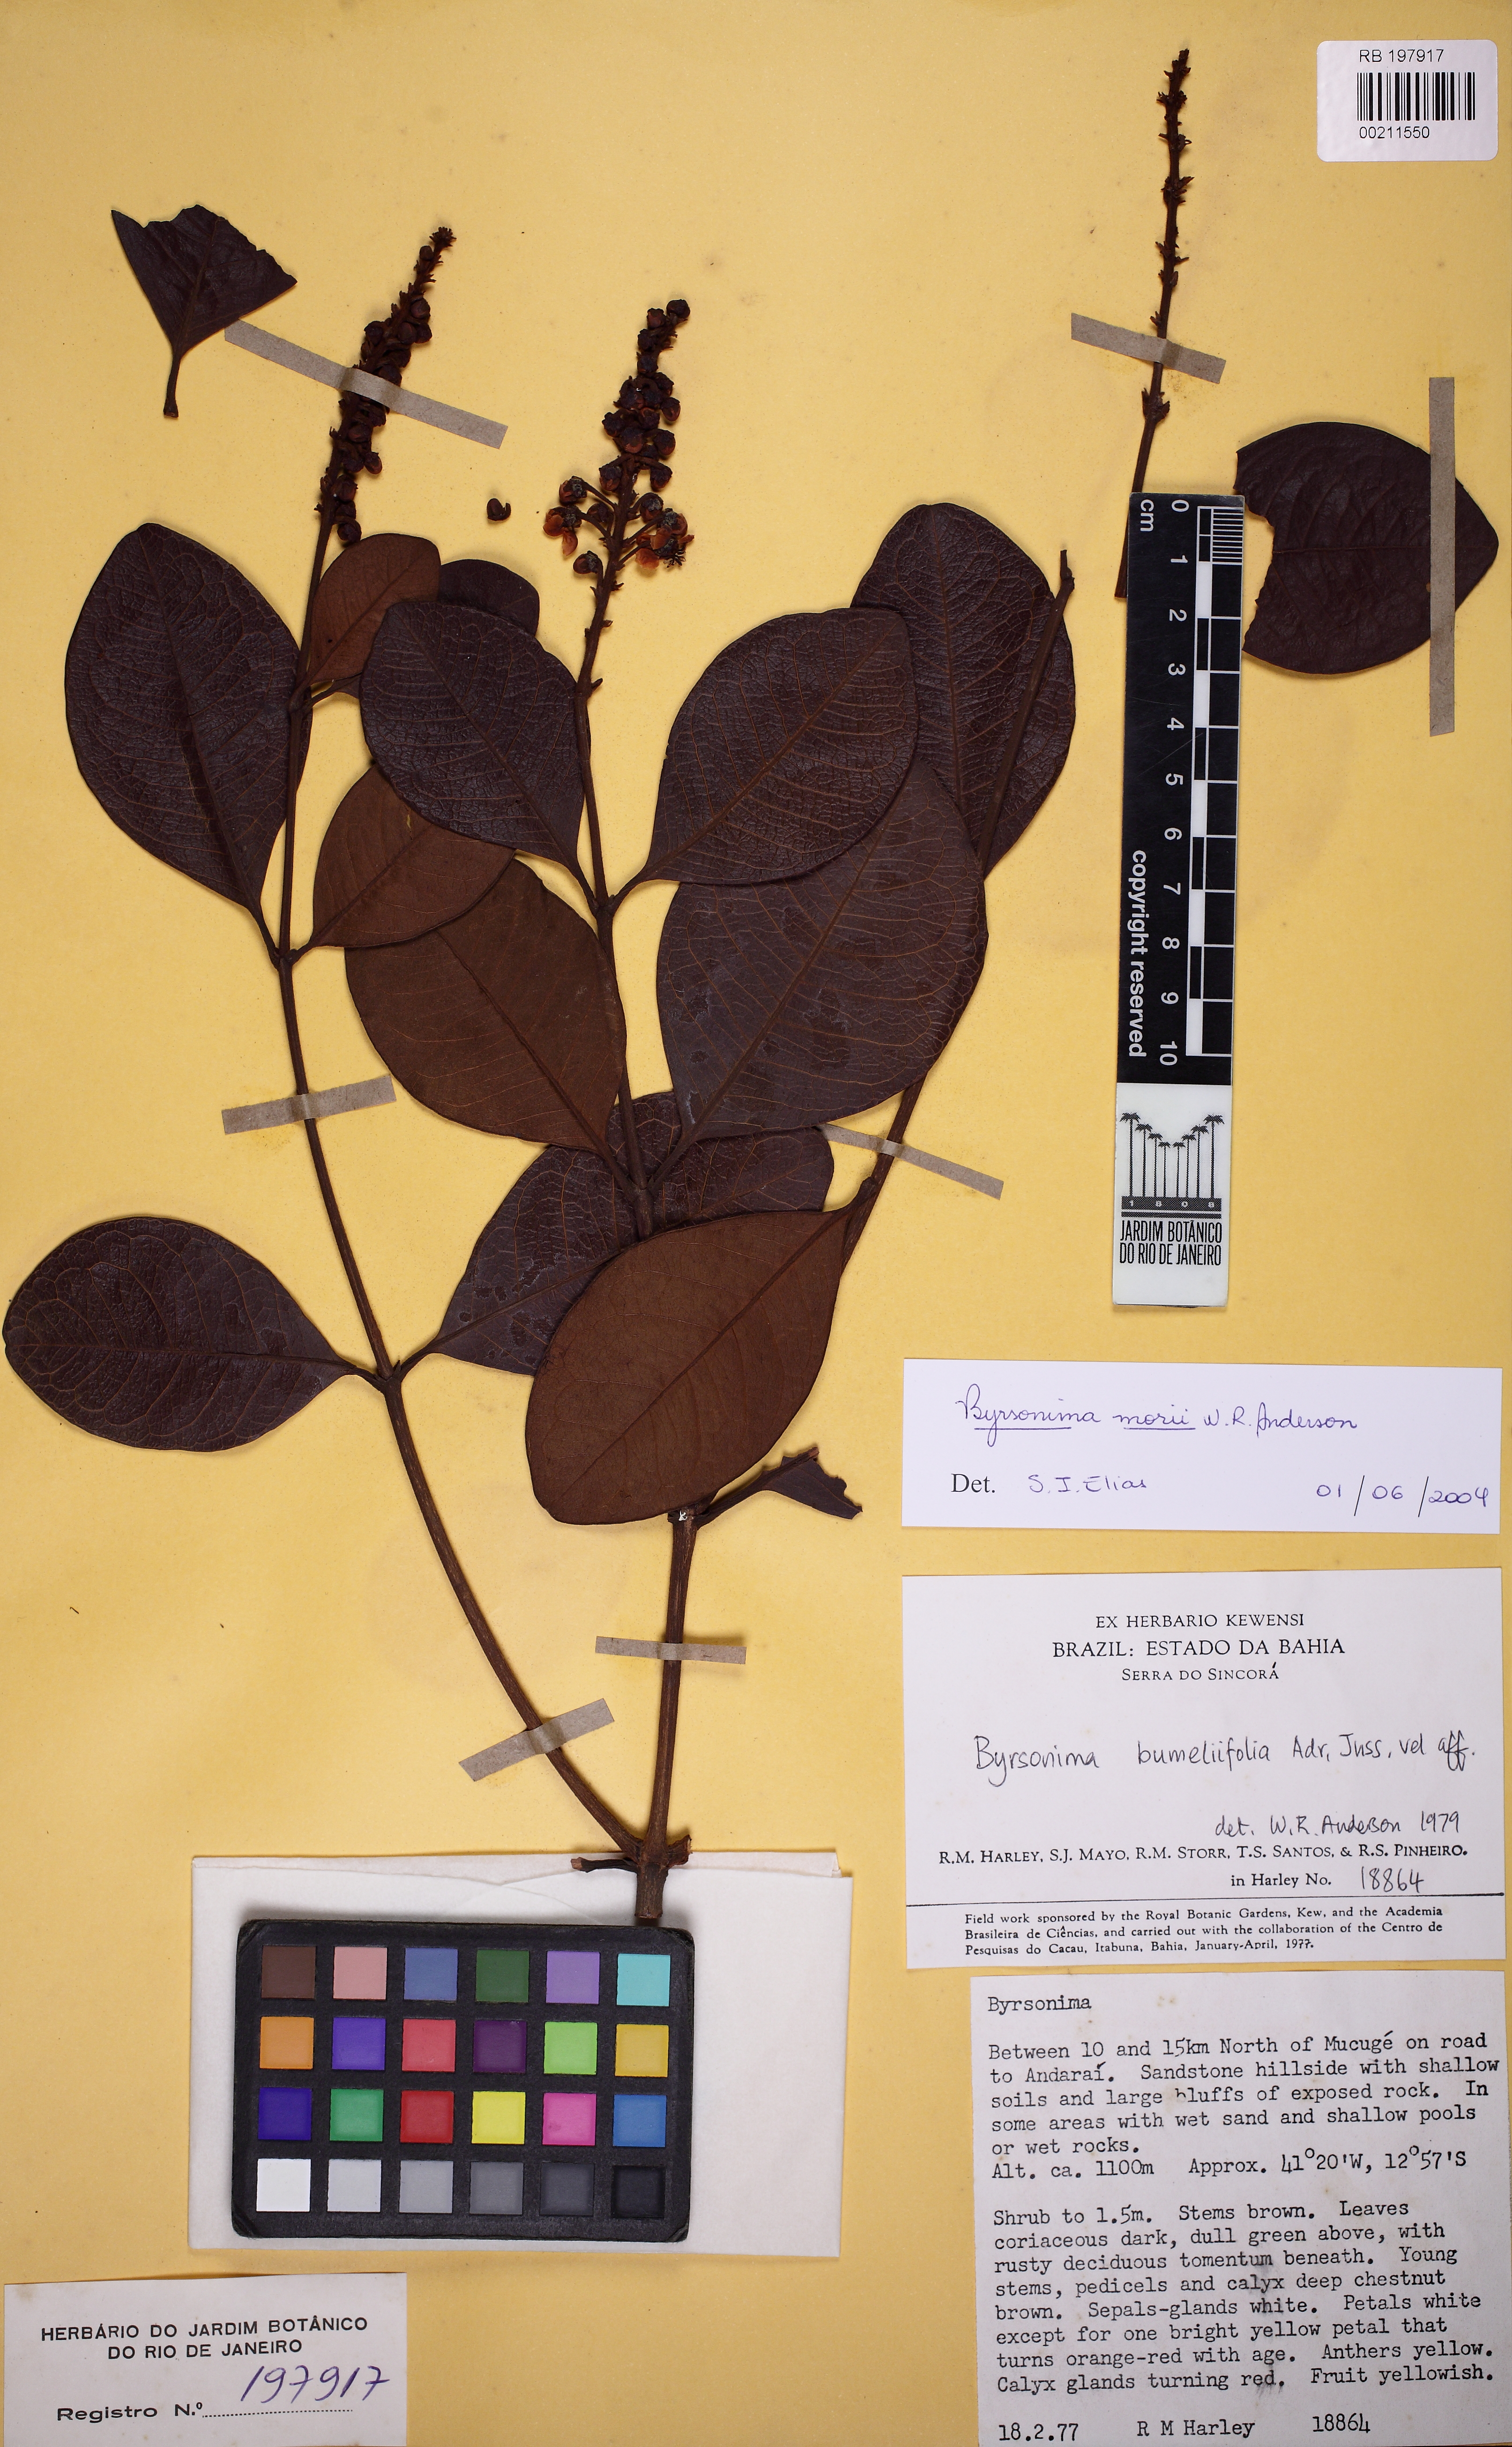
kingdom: Plantae
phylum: Tracheophyta
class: Magnoliopsida
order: Malpighiales
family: Malpighiaceae
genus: Byrsonima
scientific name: Byrsonima morii
